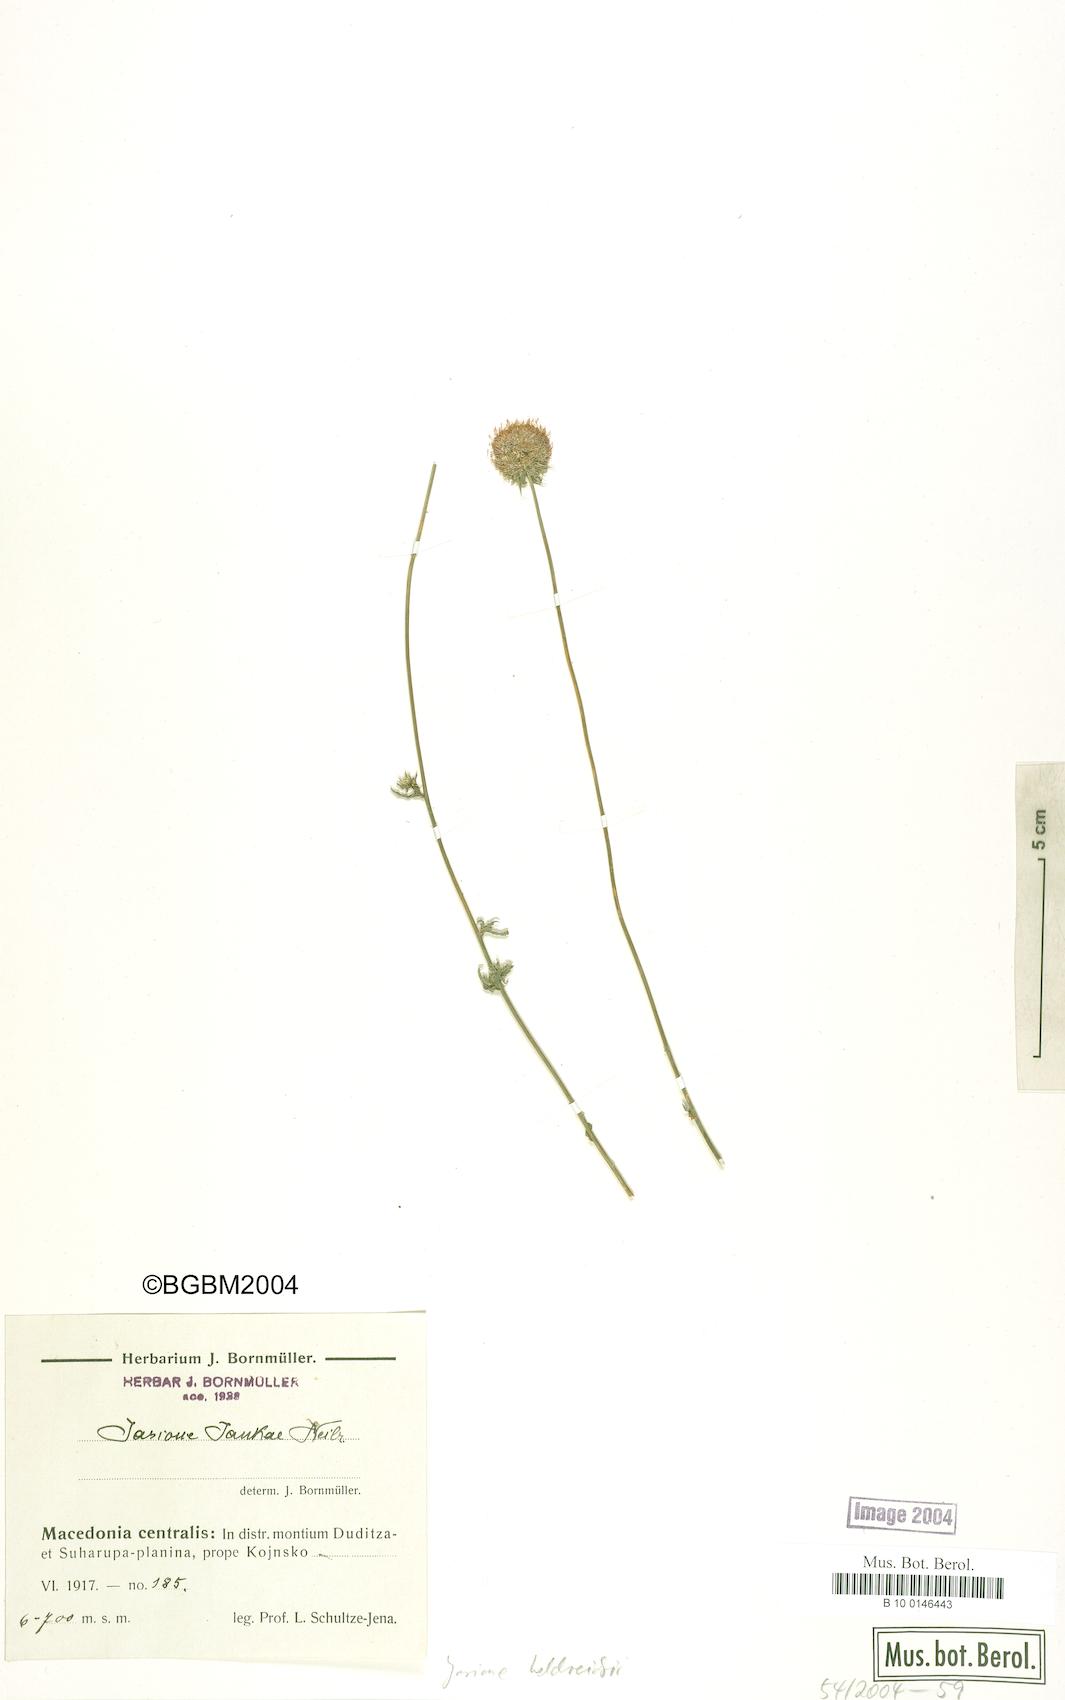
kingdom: Plantae
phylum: Tracheophyta
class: Magnoliopsida
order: Asterales
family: Campanulaceae
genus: Jasione
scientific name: Jasione heldreichii
